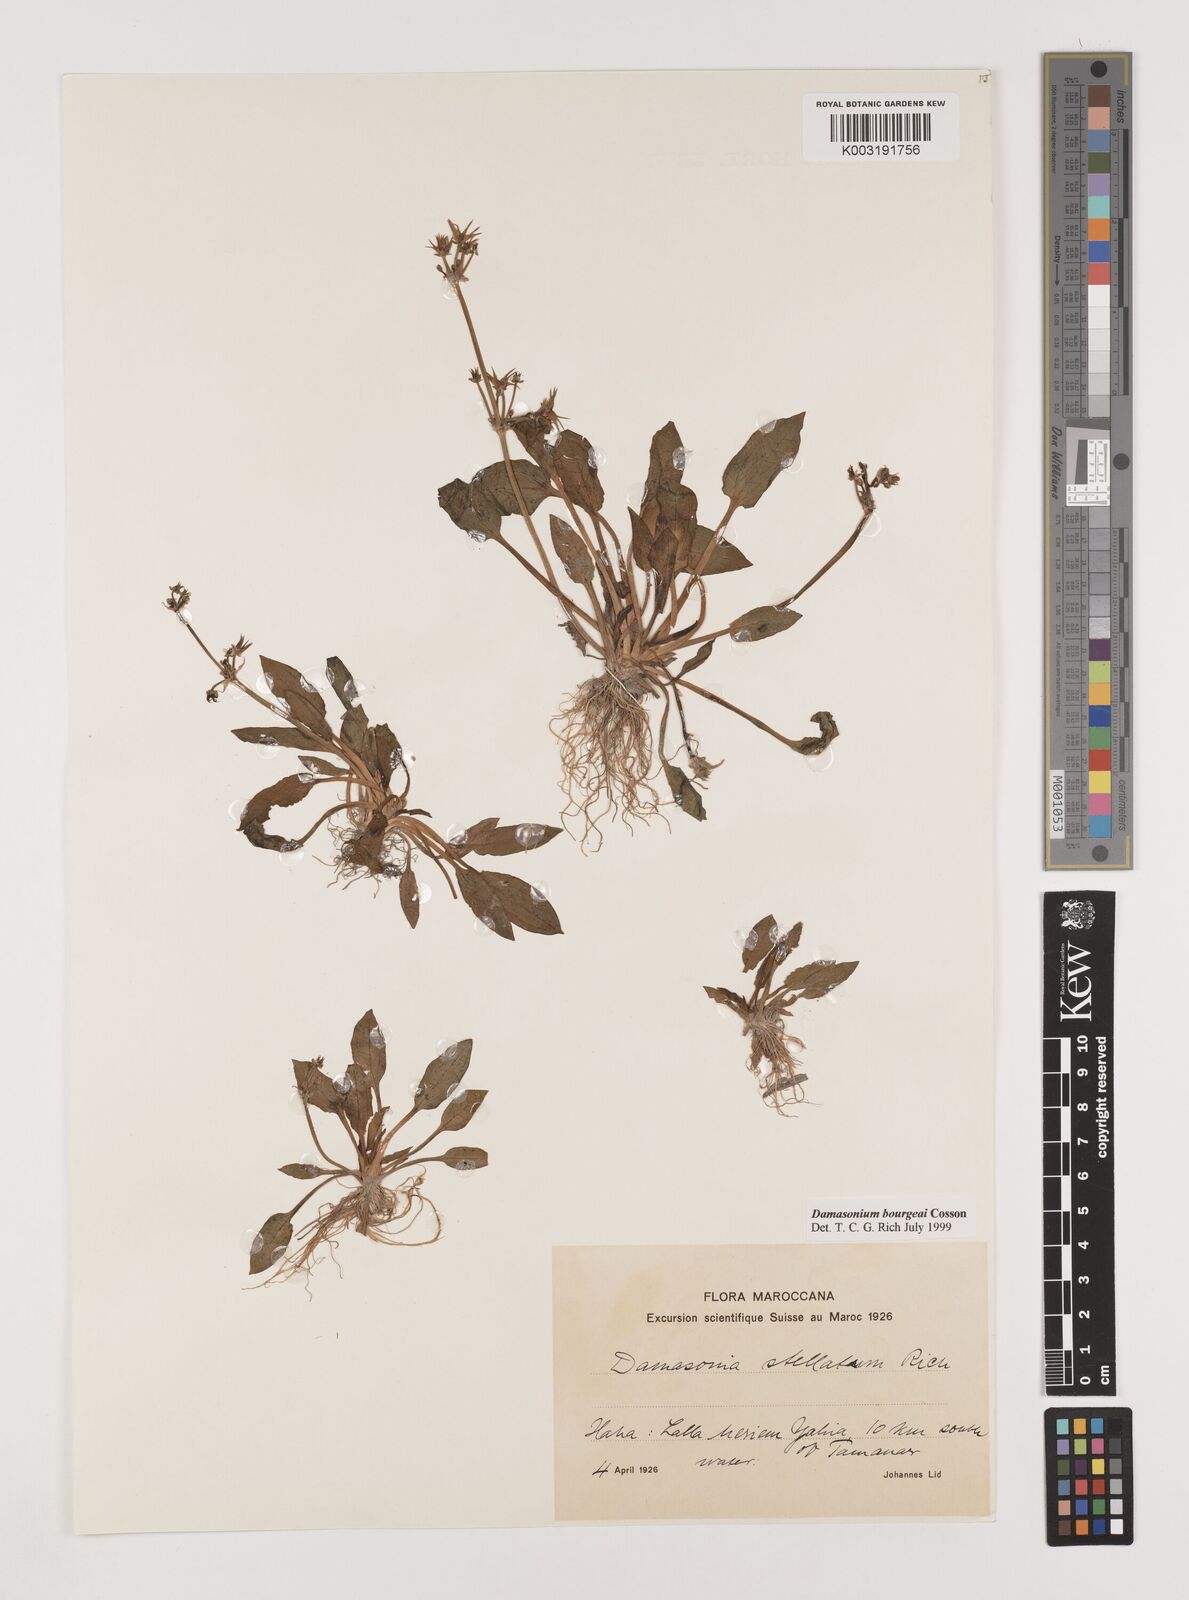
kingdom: Plantae
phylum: Tracheophyta
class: Liliopsida
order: Alismatales
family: Alismataceae
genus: Damasonium
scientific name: Damasonium bourgaei
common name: Starfruit
